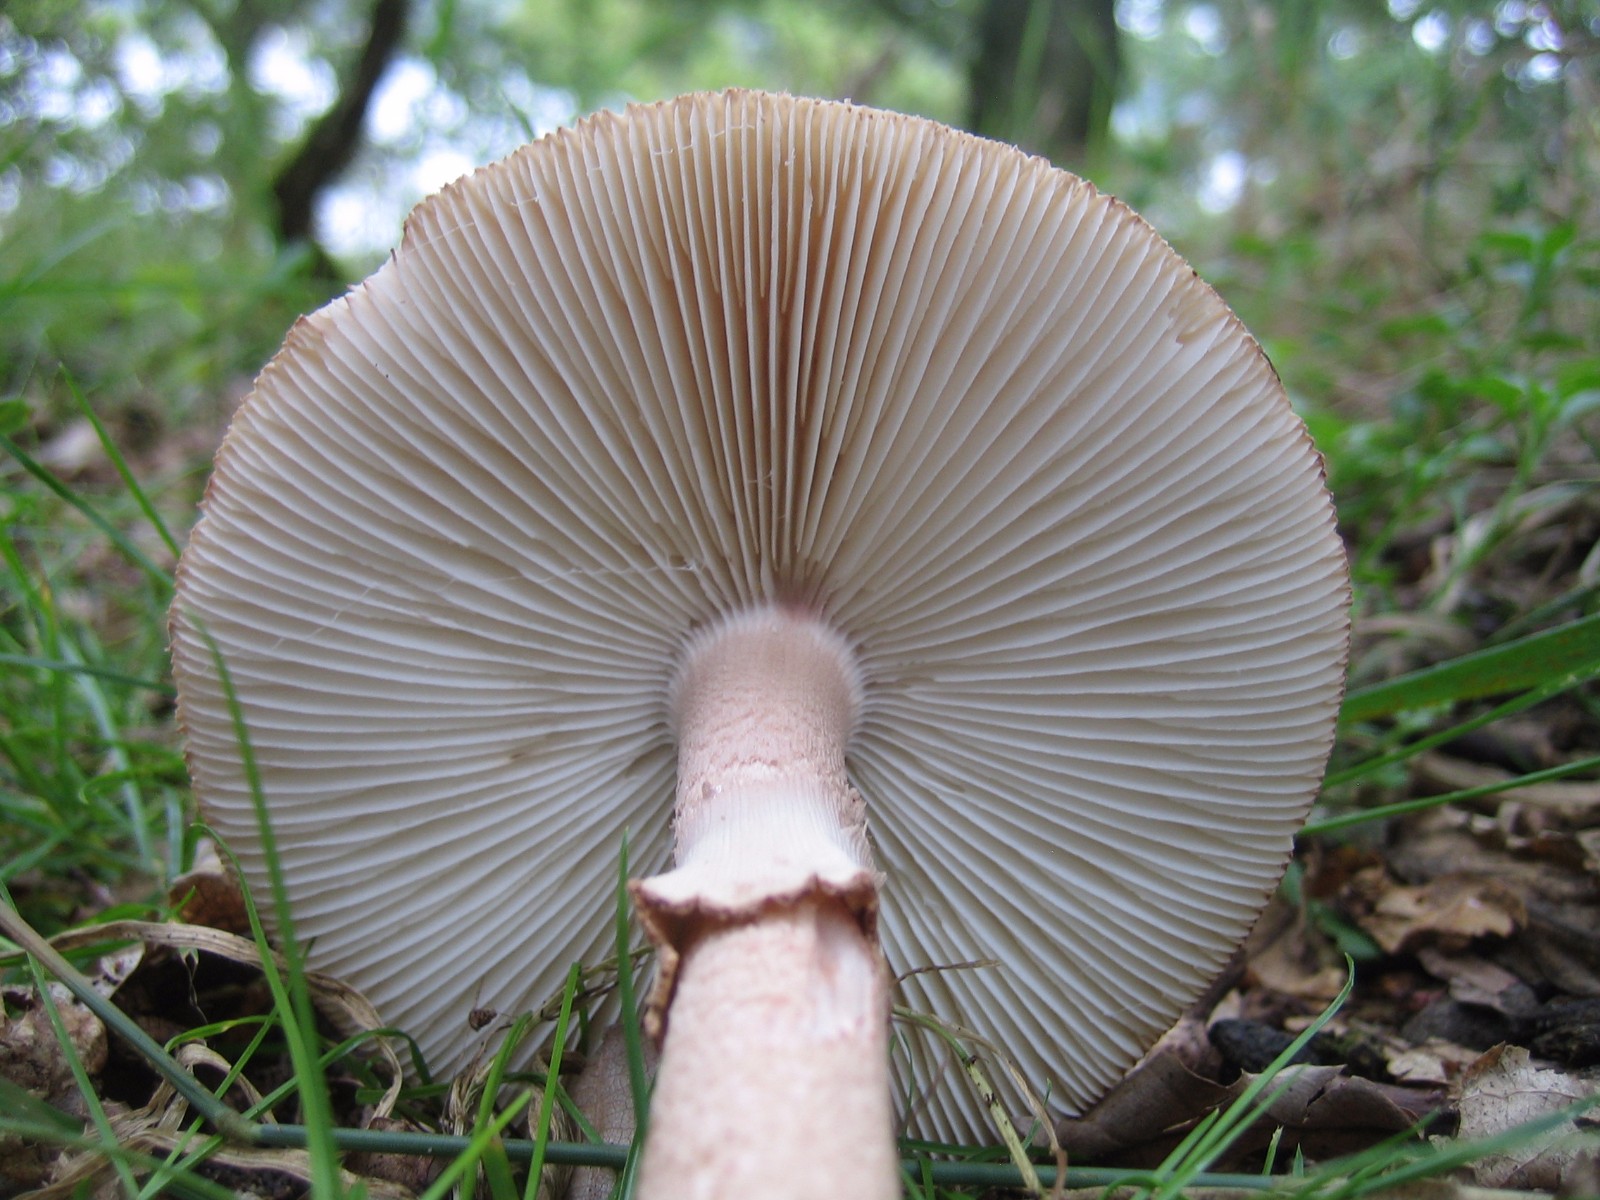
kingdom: Fungi
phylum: Basidiomycota
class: Agaricomycetes
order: Agaricales
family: Amanitaceae
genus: Amanita
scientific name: Amanita rubescens
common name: rødmende fluesvamp
